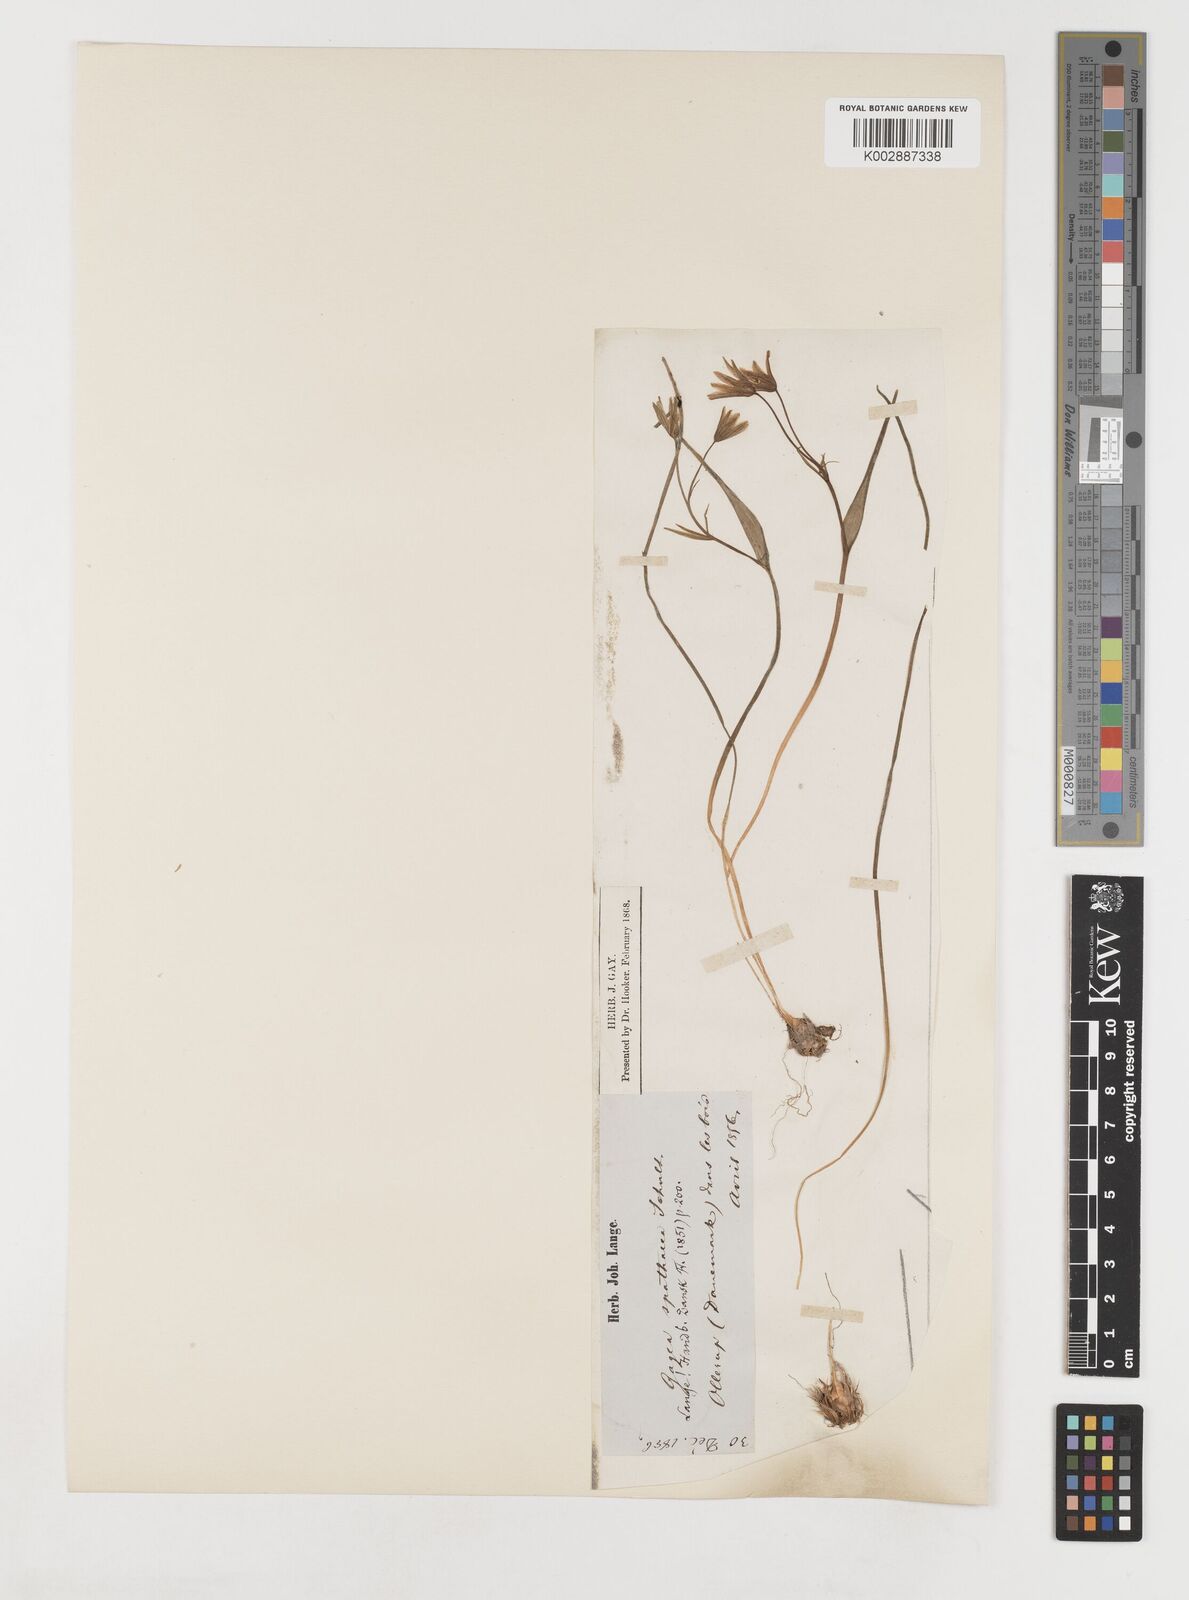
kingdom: Plantae
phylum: Tracheophyta
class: Liliopsida
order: Liliales
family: Liliaceae
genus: Gagea
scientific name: Gagea spathacea
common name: Belgian gagea
